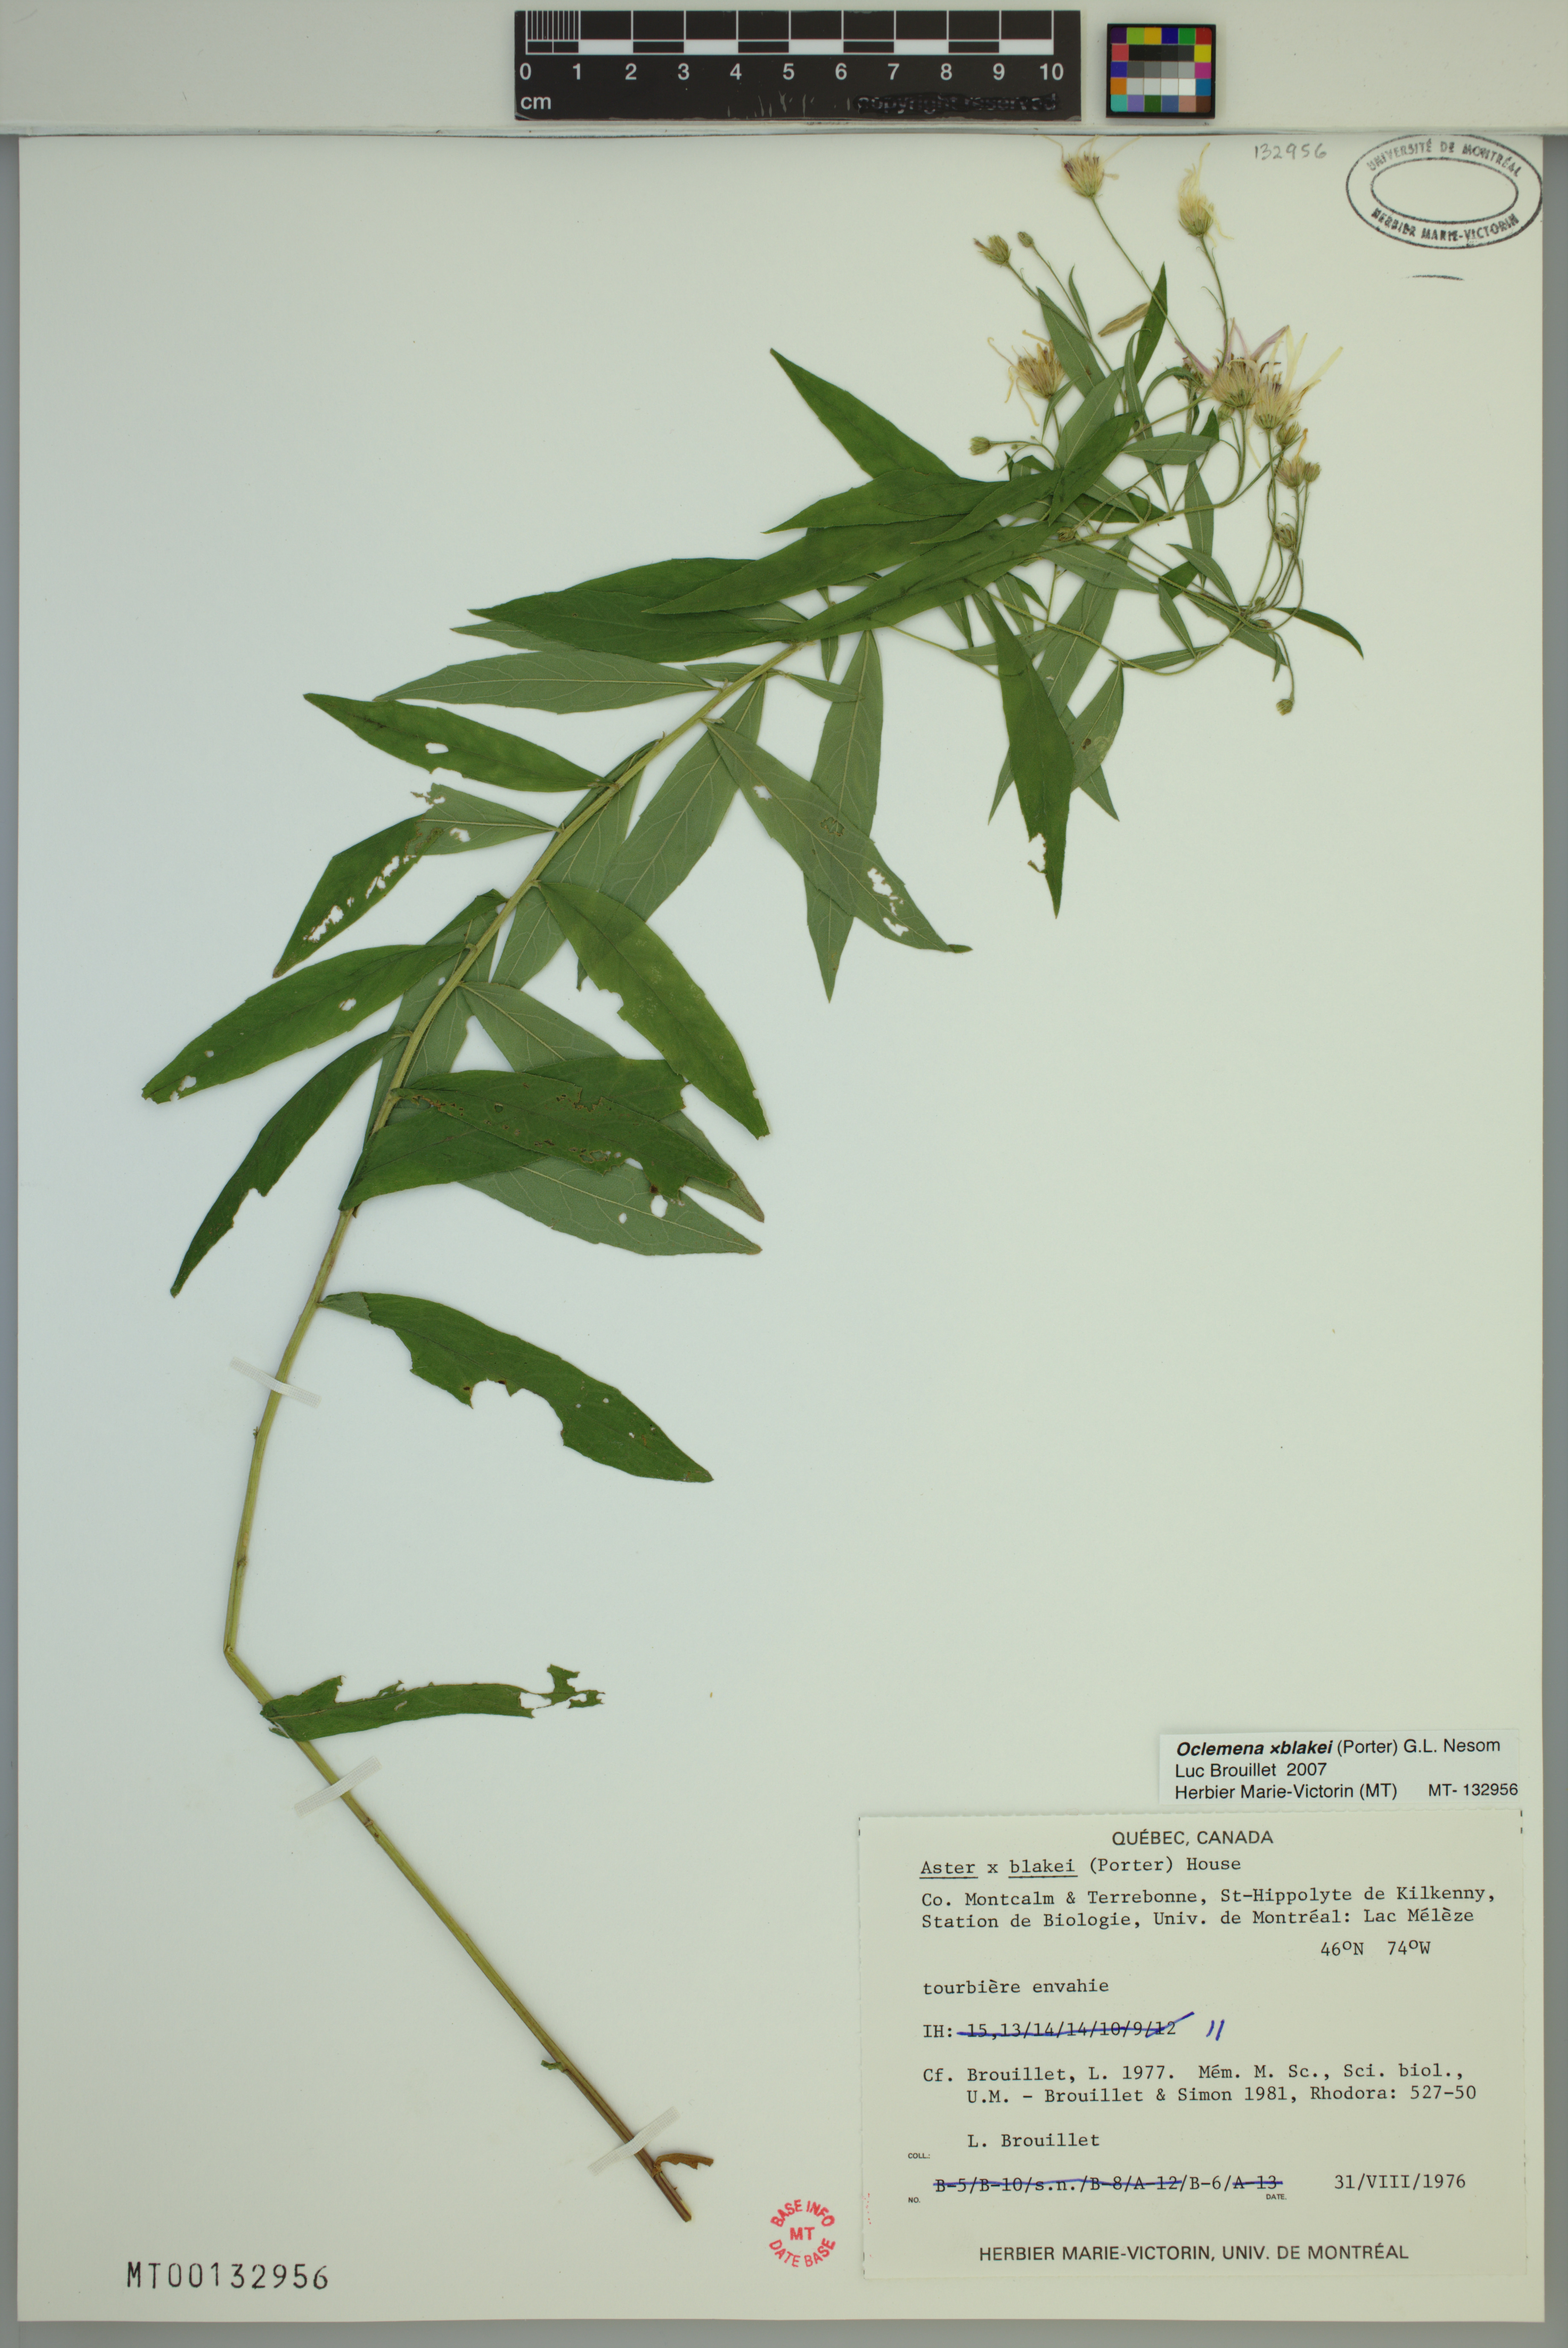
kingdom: Plantae
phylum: Tracheophyta
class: Magnoliopsida
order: Asterales
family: Asteraceae
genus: Oclemena
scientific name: Oclemena blakei
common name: Blake's aster
